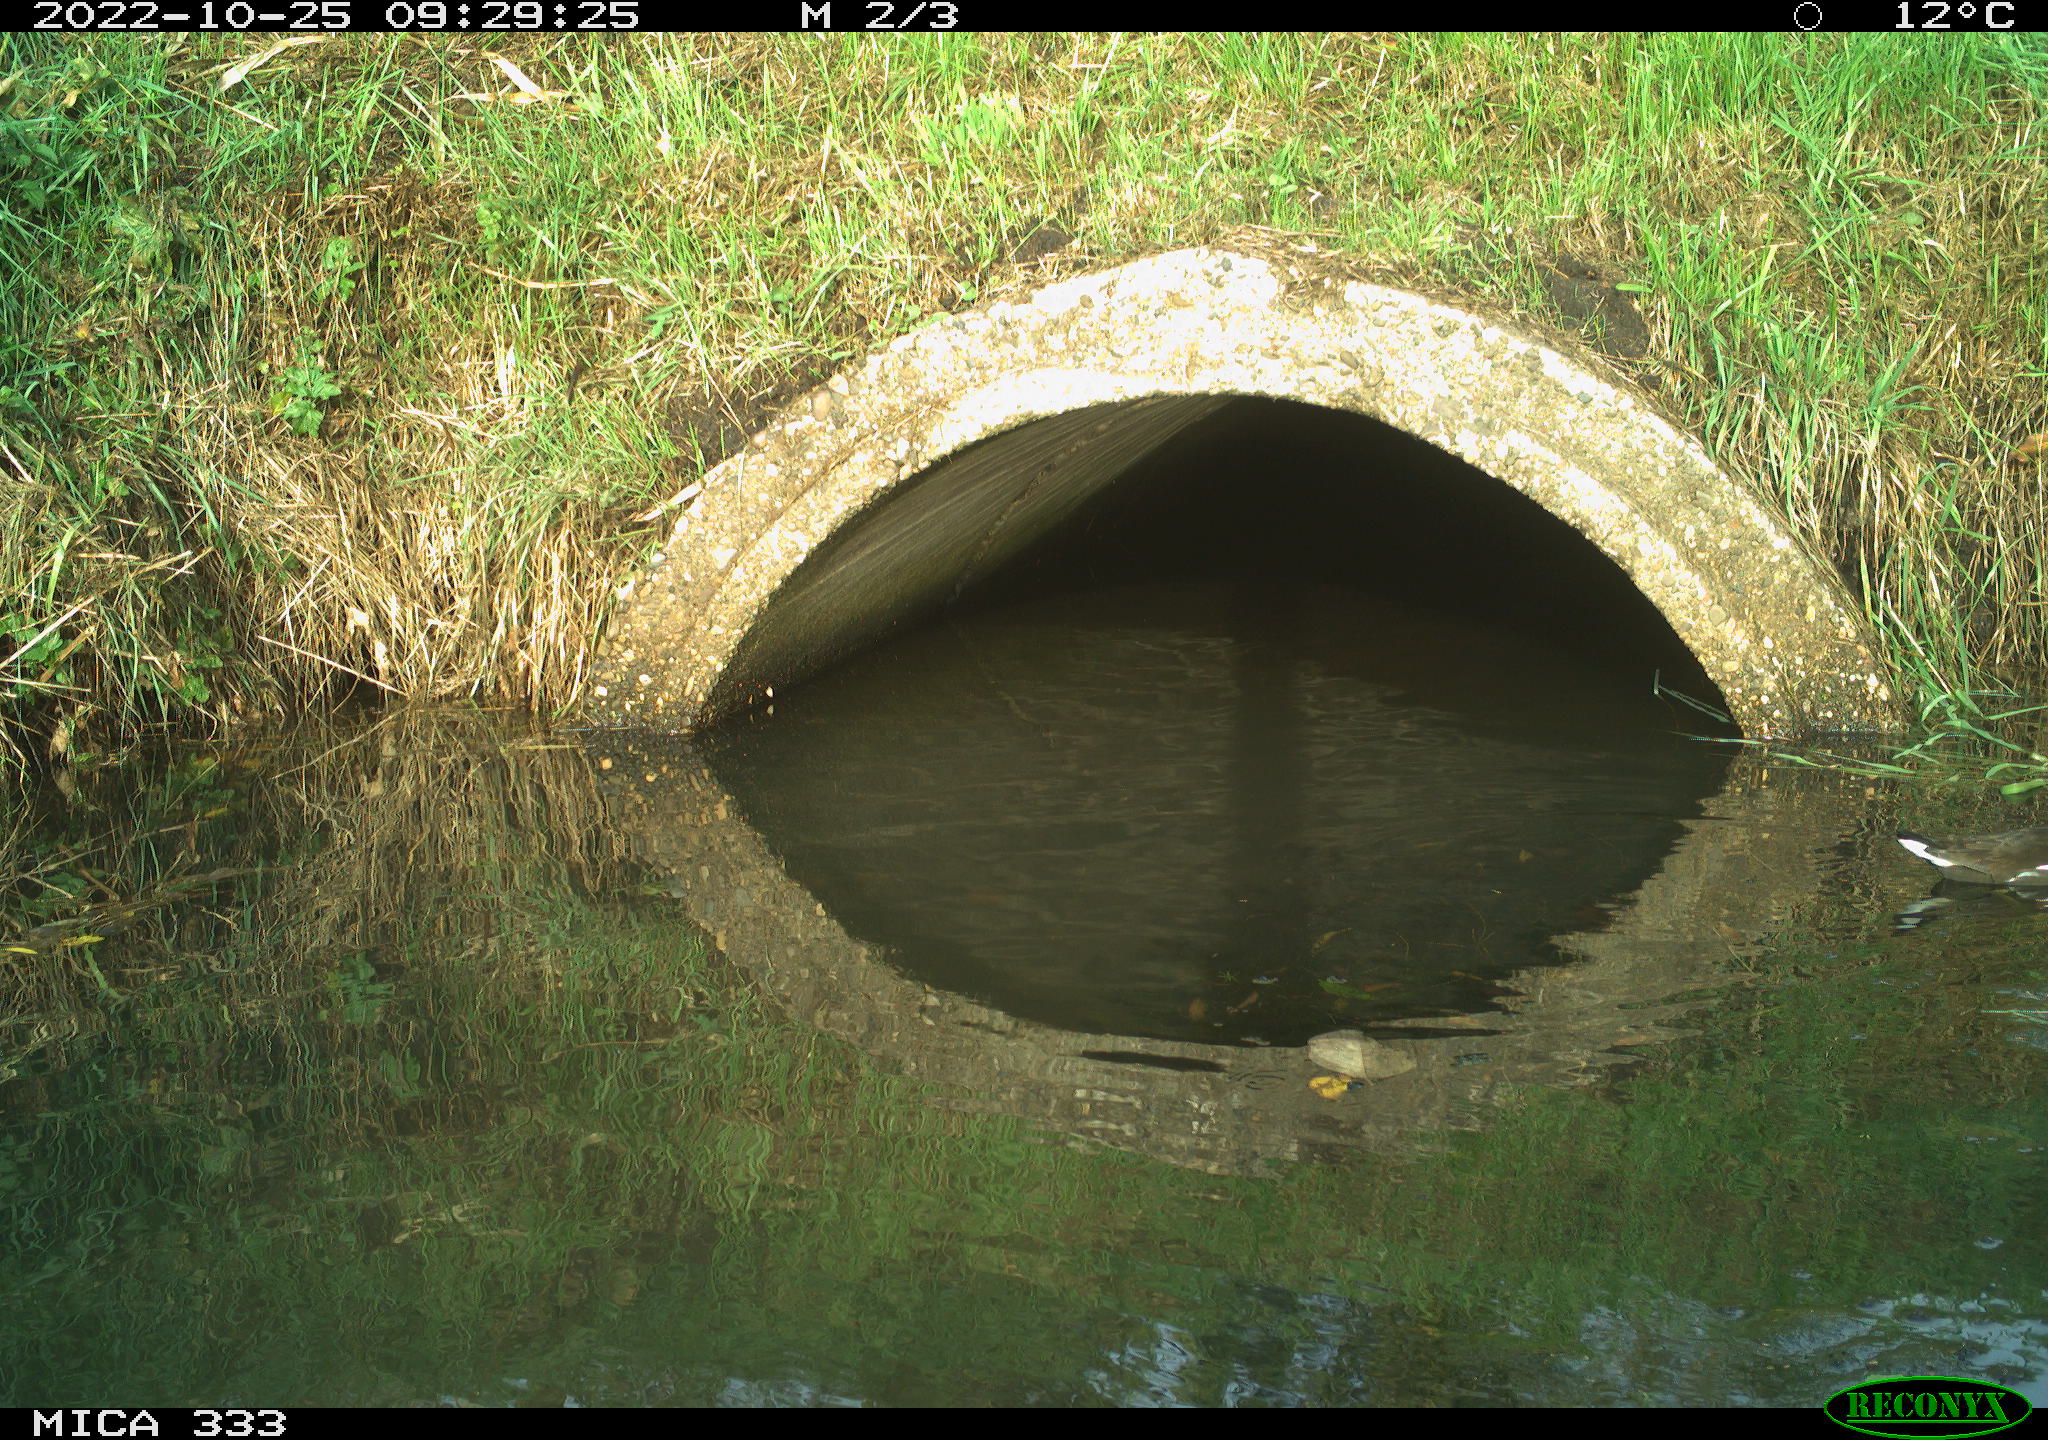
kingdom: Animalia
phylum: Chordata
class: Aves
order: Gruiformes
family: Rallidae
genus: Gallinula
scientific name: Gallinula chloropus
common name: Common moorhen
